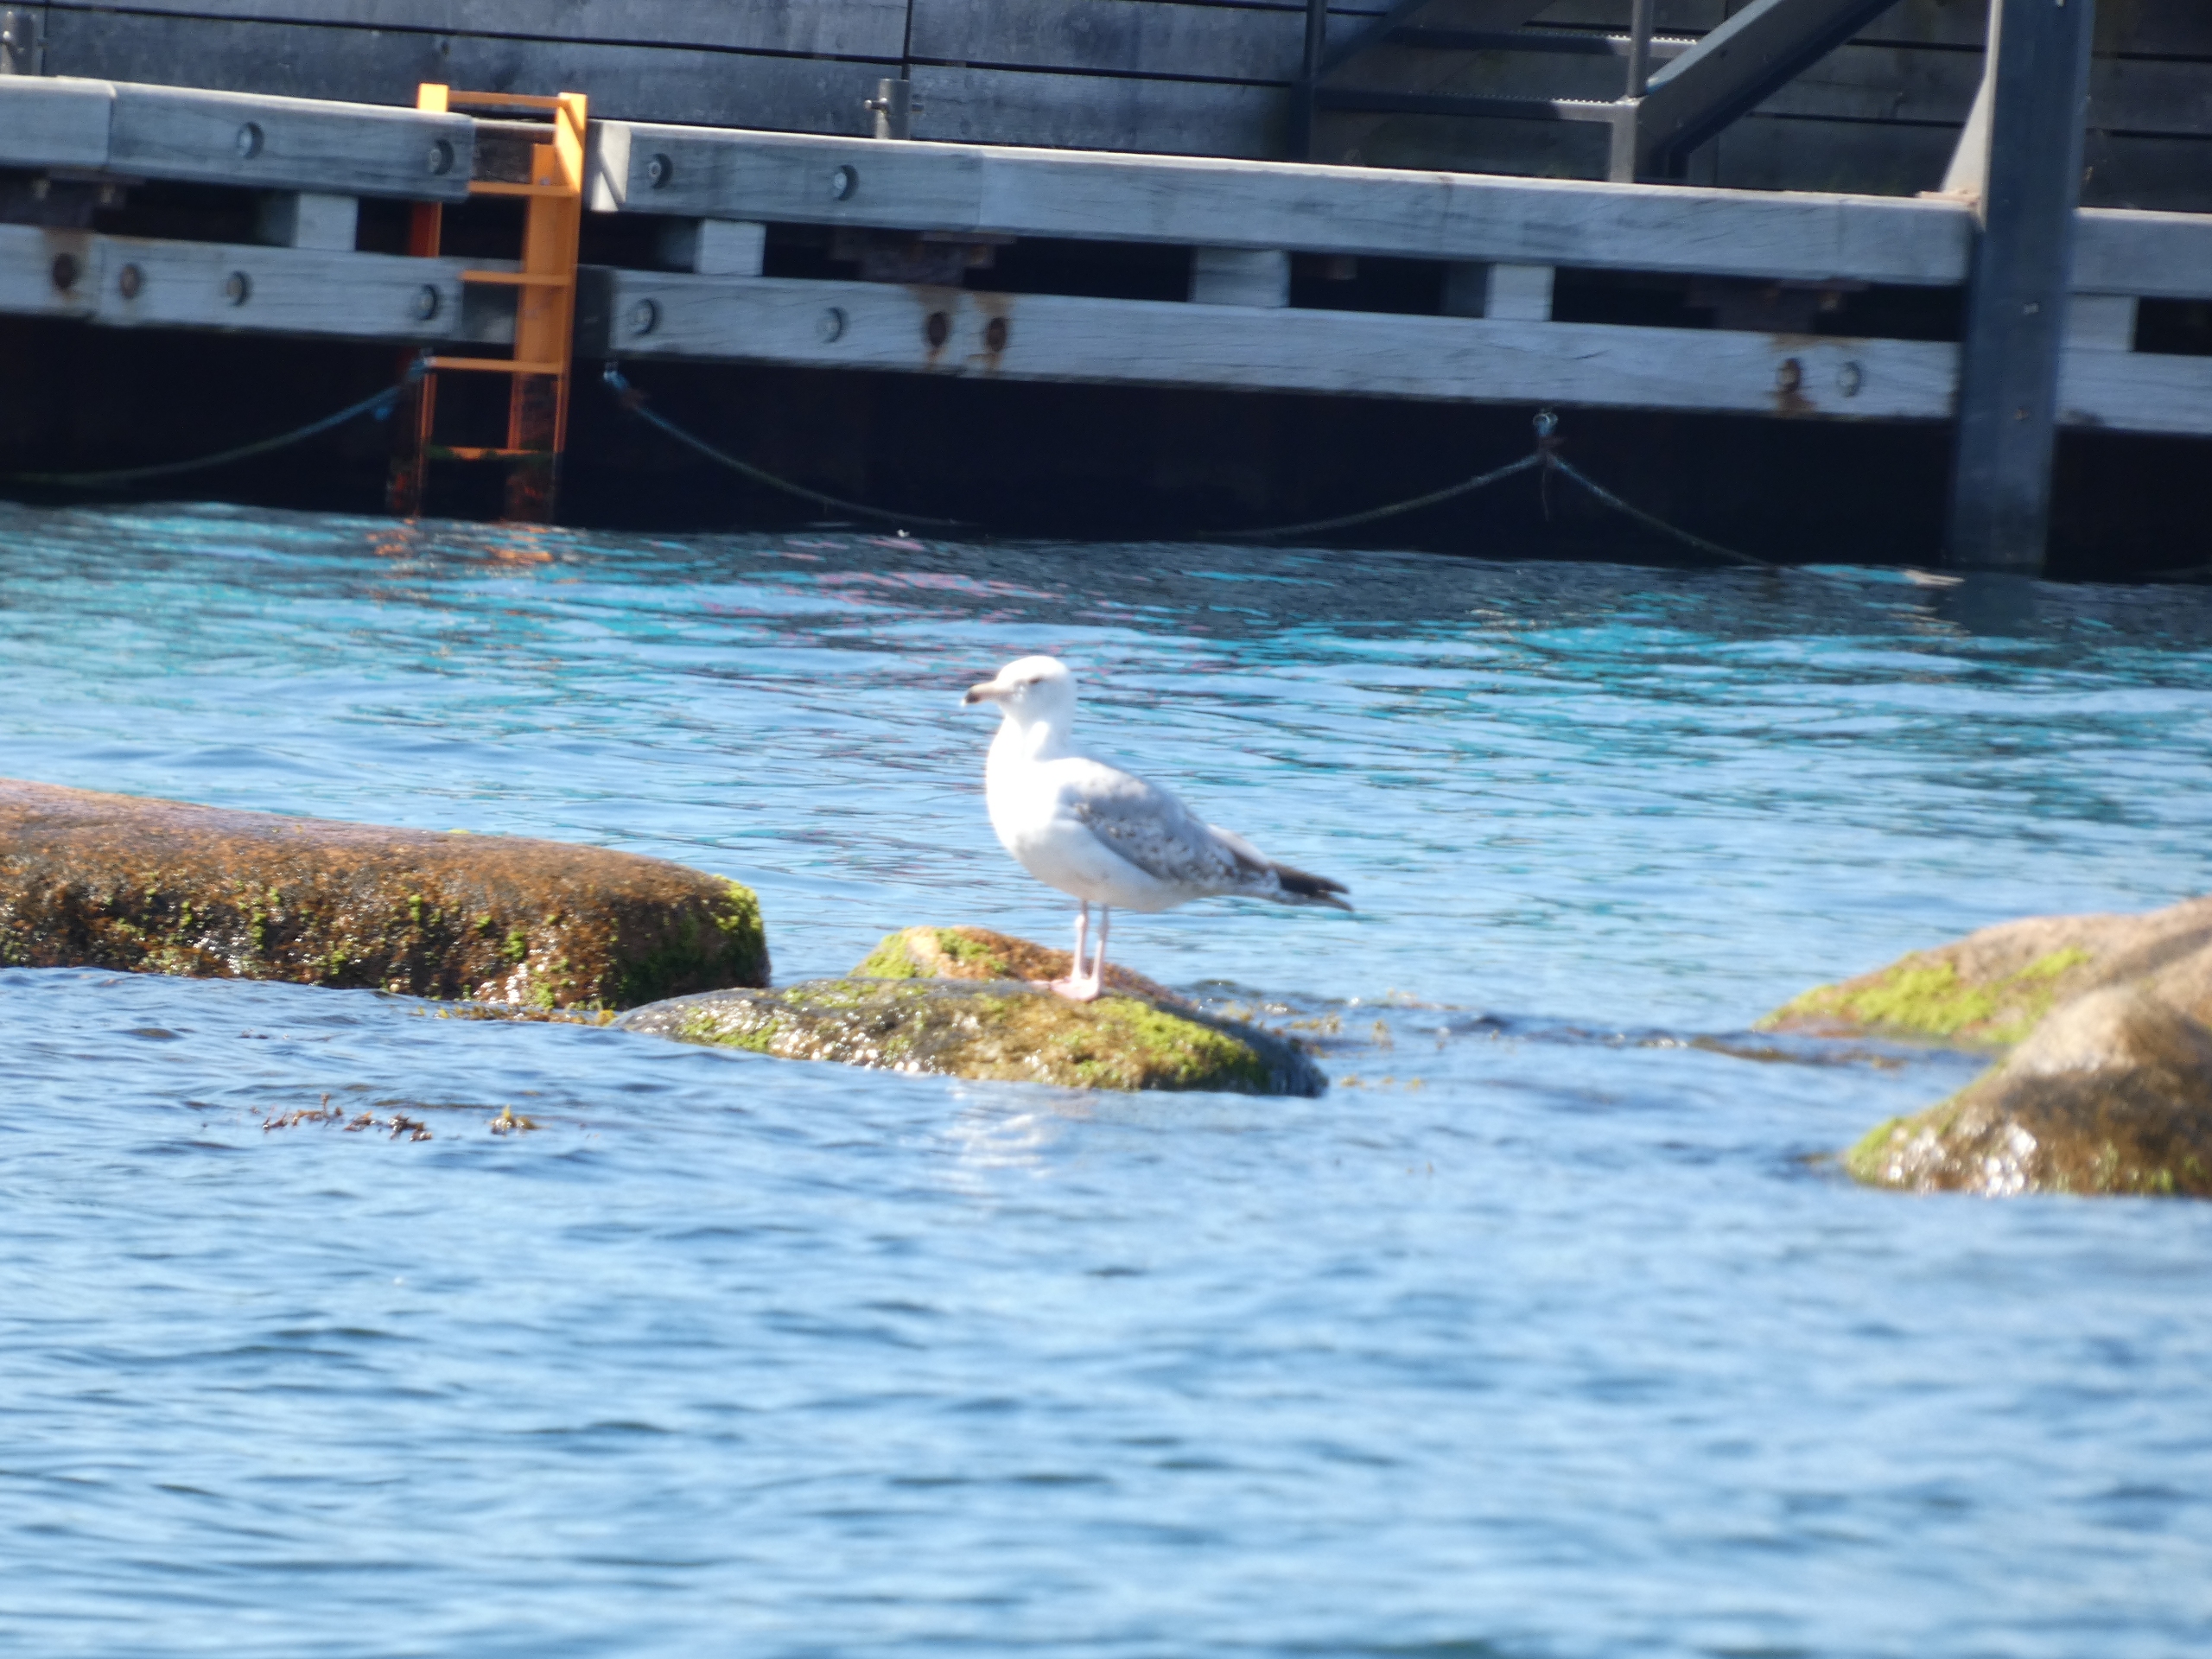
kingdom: Animalia
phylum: Chordata
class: Aves
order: Charadriiformes
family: Laridae
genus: Larus
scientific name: Larus argentatus
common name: Sølvmåge
